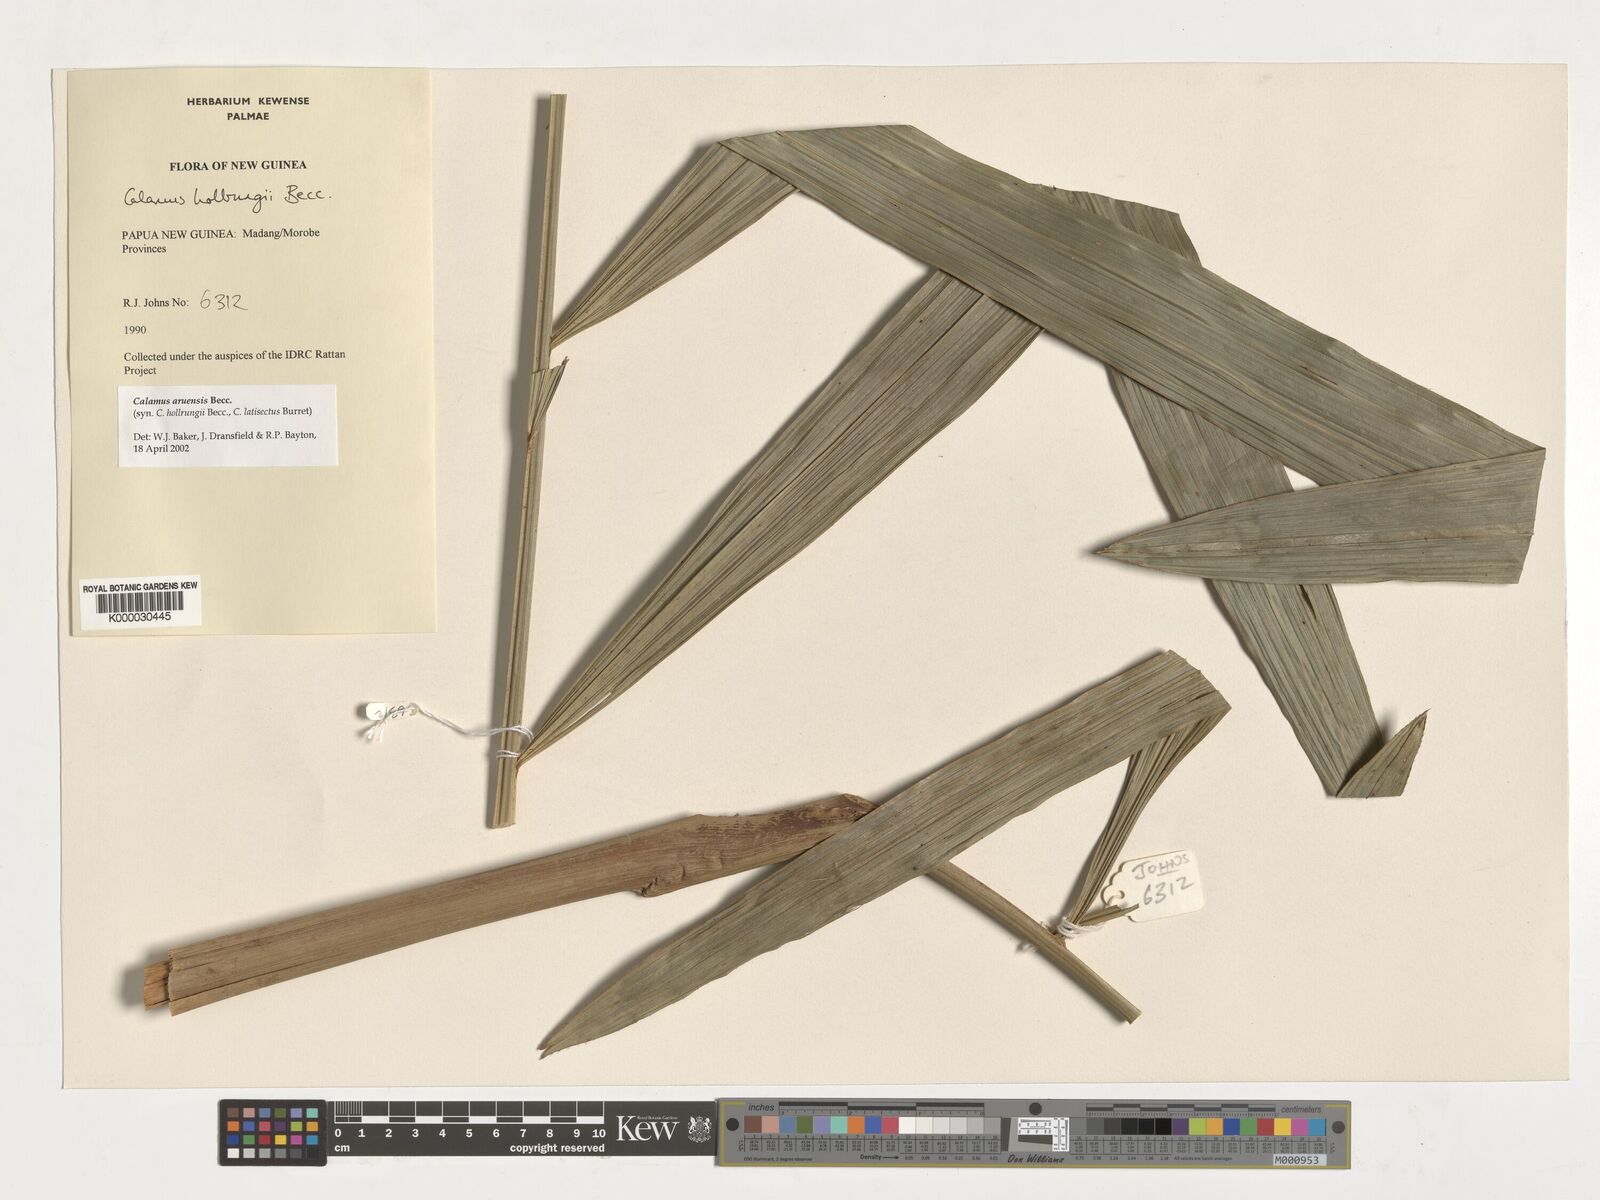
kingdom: Plantae
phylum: Tracheophyta
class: Liliopsida
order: Arecales
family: Arecaceae
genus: Calamus
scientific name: Calamus aruensis
